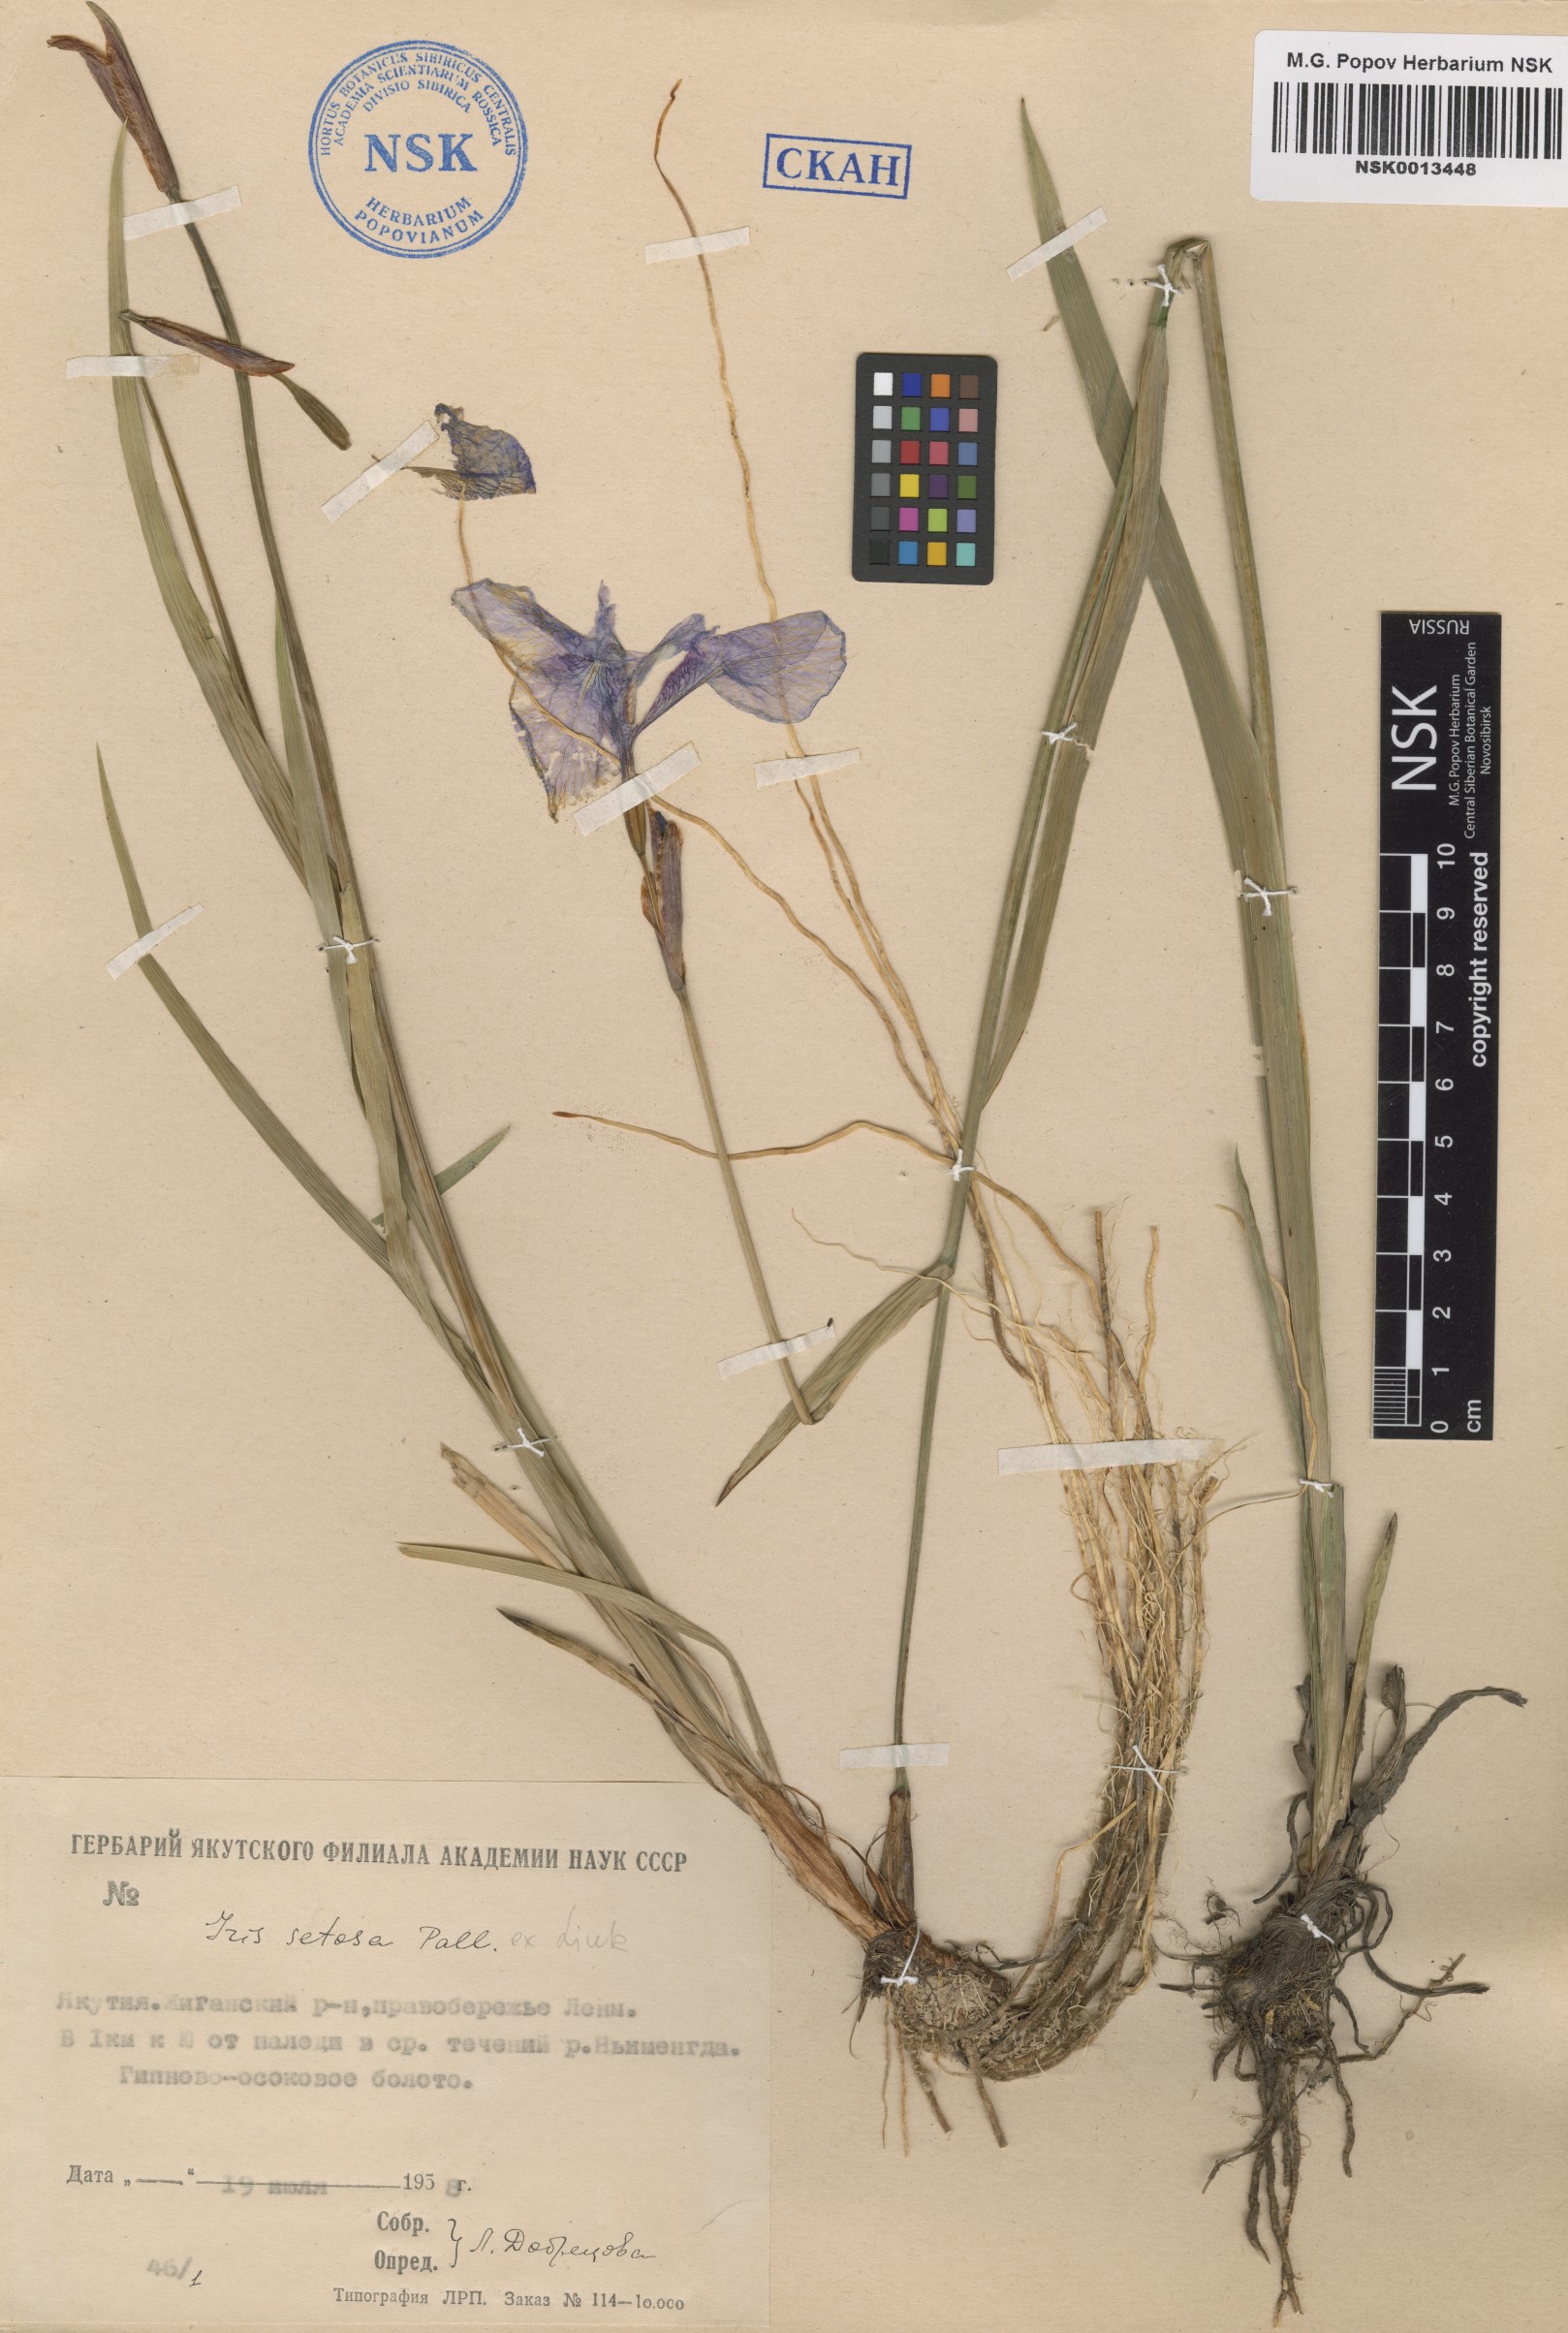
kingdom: Plantae
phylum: Tracheophyta
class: Liliopsida
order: Asparagales
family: Iridaceae
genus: Iris
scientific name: Iris setosa
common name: Arctic blue flag
